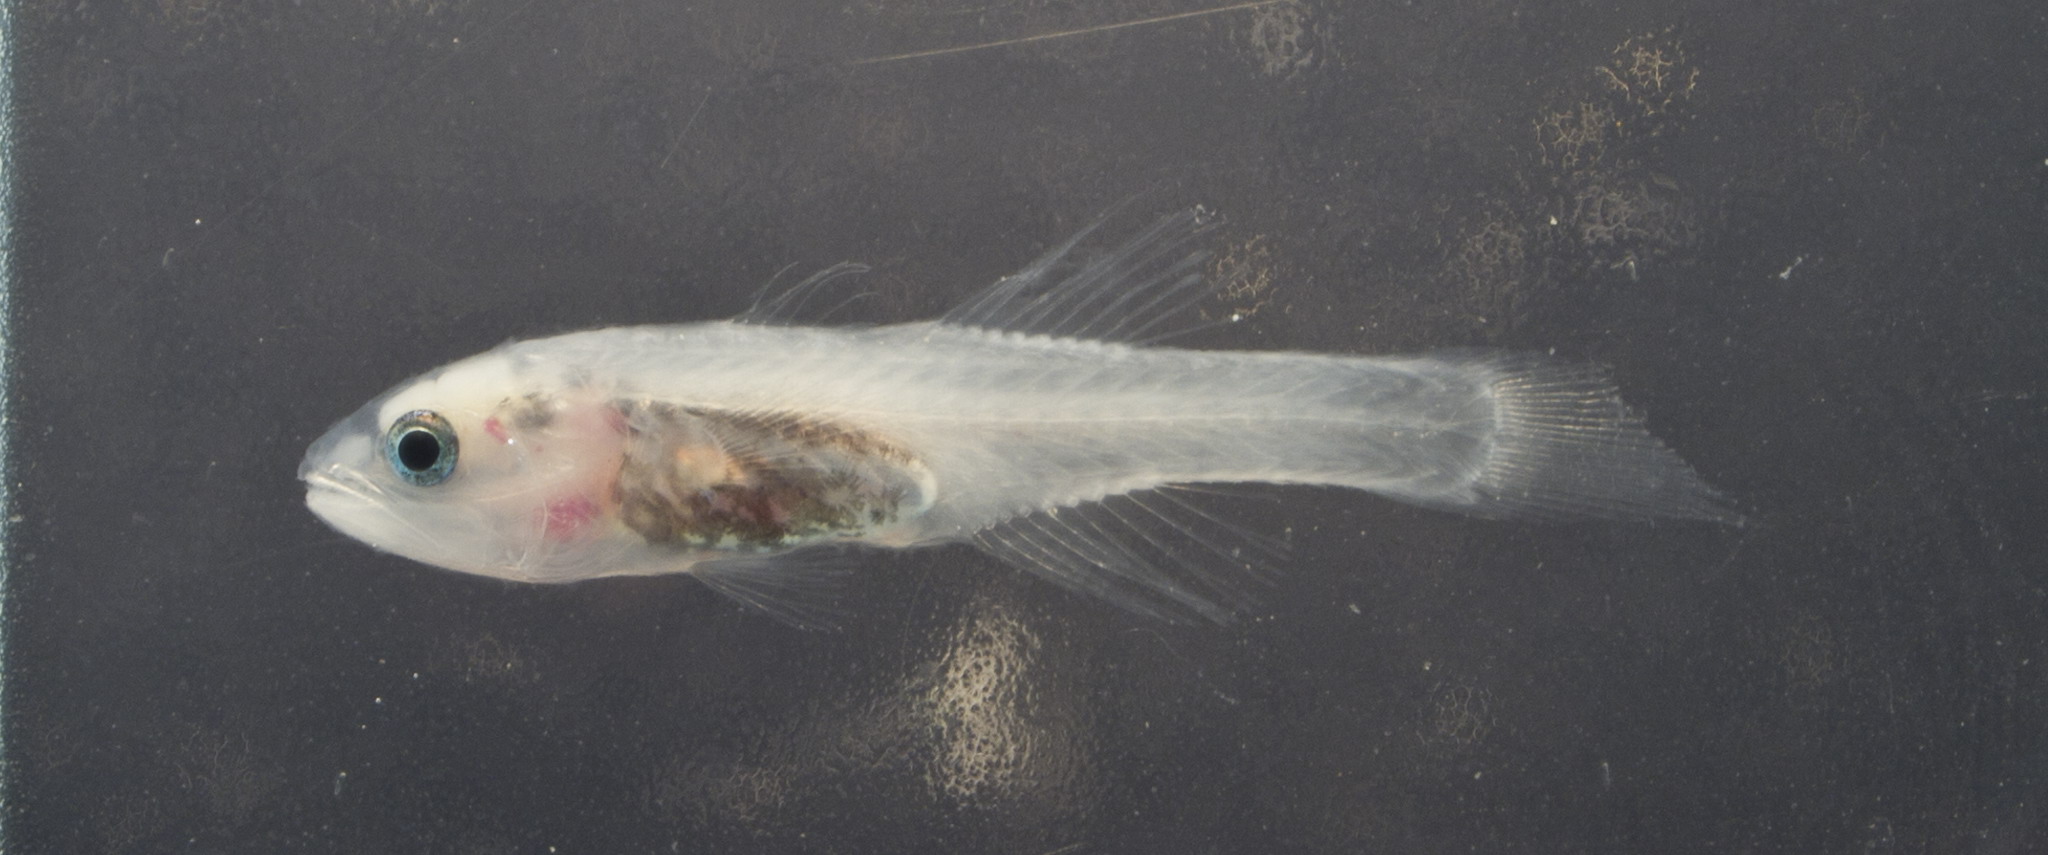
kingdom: Animalia
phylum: Chordata
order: Perciformes
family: Apogonidae
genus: Pseudamiops
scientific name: Pseudamiops springeri
